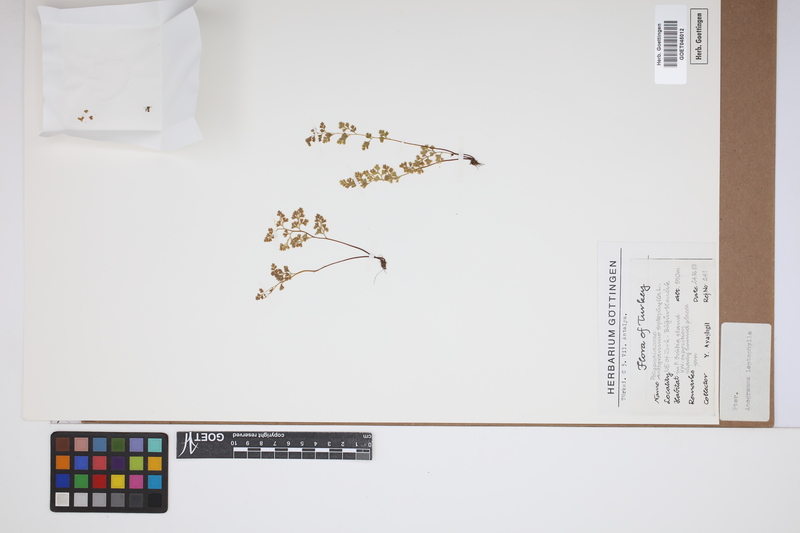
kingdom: Plantae
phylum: Tracheophyta
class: Polypodiopsida
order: Polypodiales
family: Pteridaceae
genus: Anogramma
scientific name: Anogramma leptophylla
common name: Jersey fern
